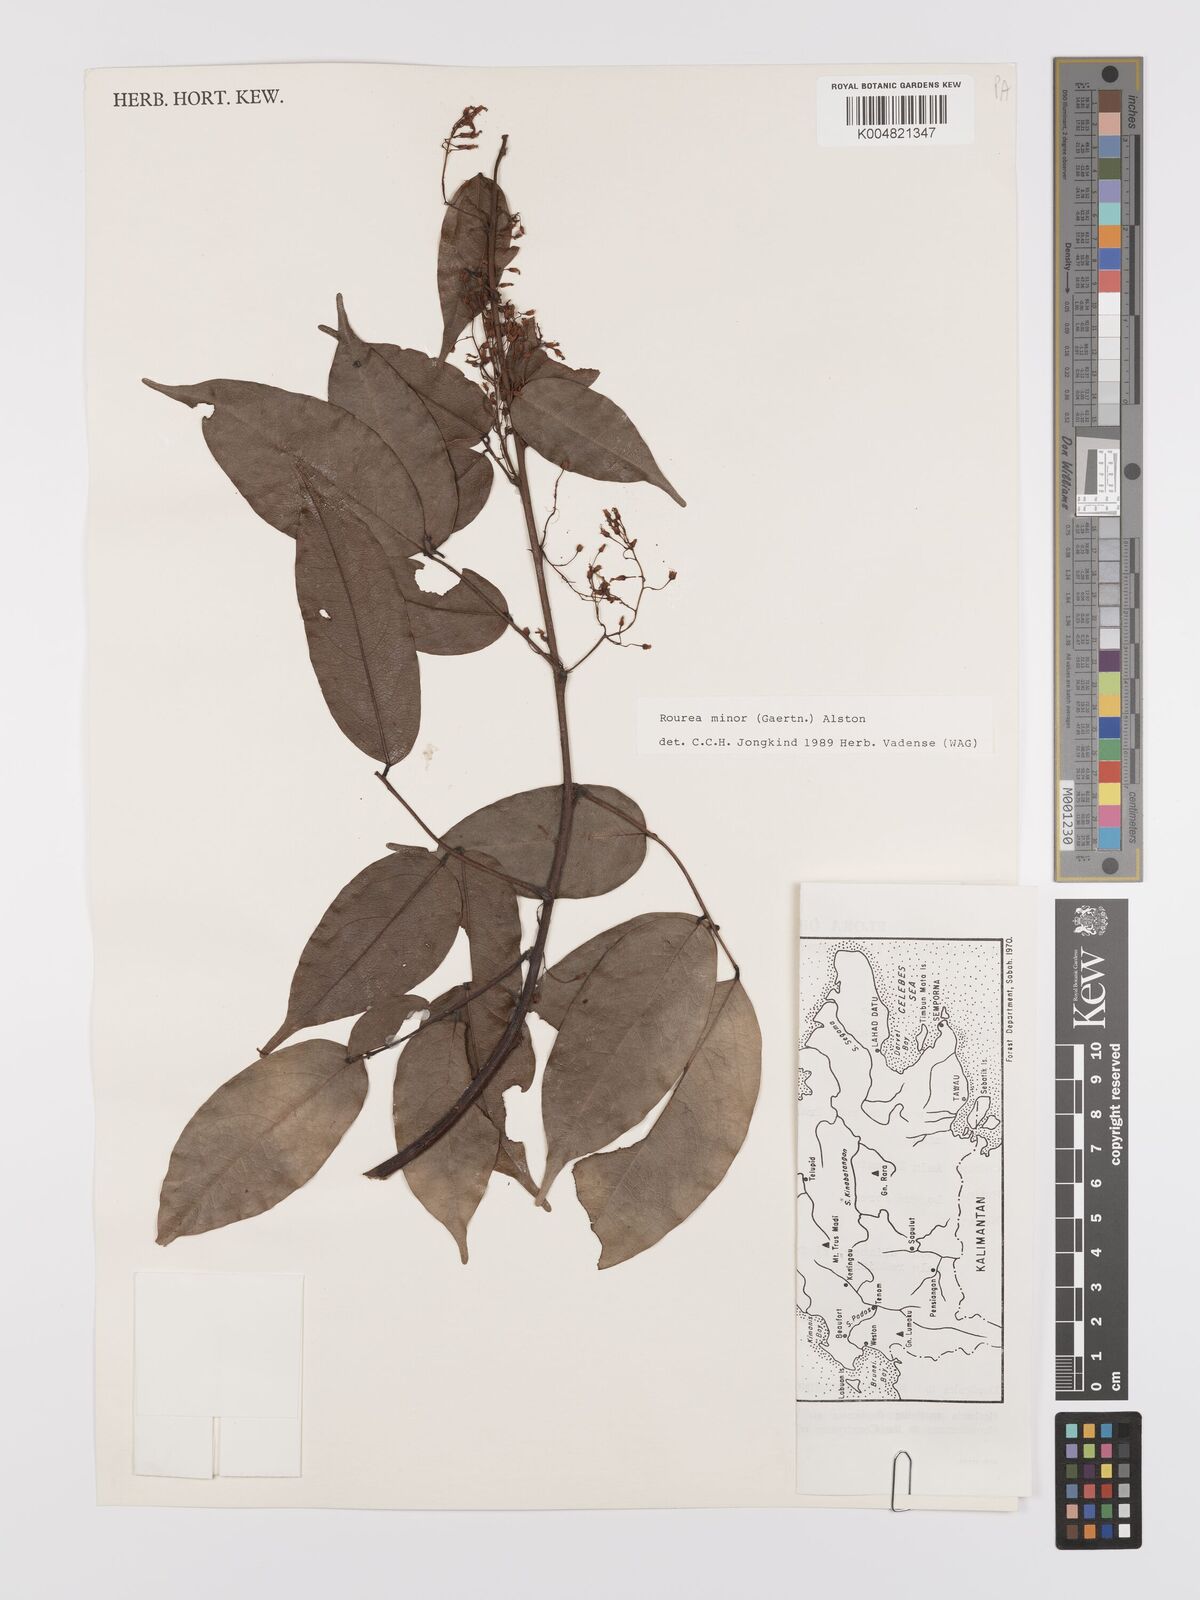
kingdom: Plantae
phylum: Tracheophyta
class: Magnoliopsida
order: Oxalidales
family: Connaraceae
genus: Rourea
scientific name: Rourea minor
